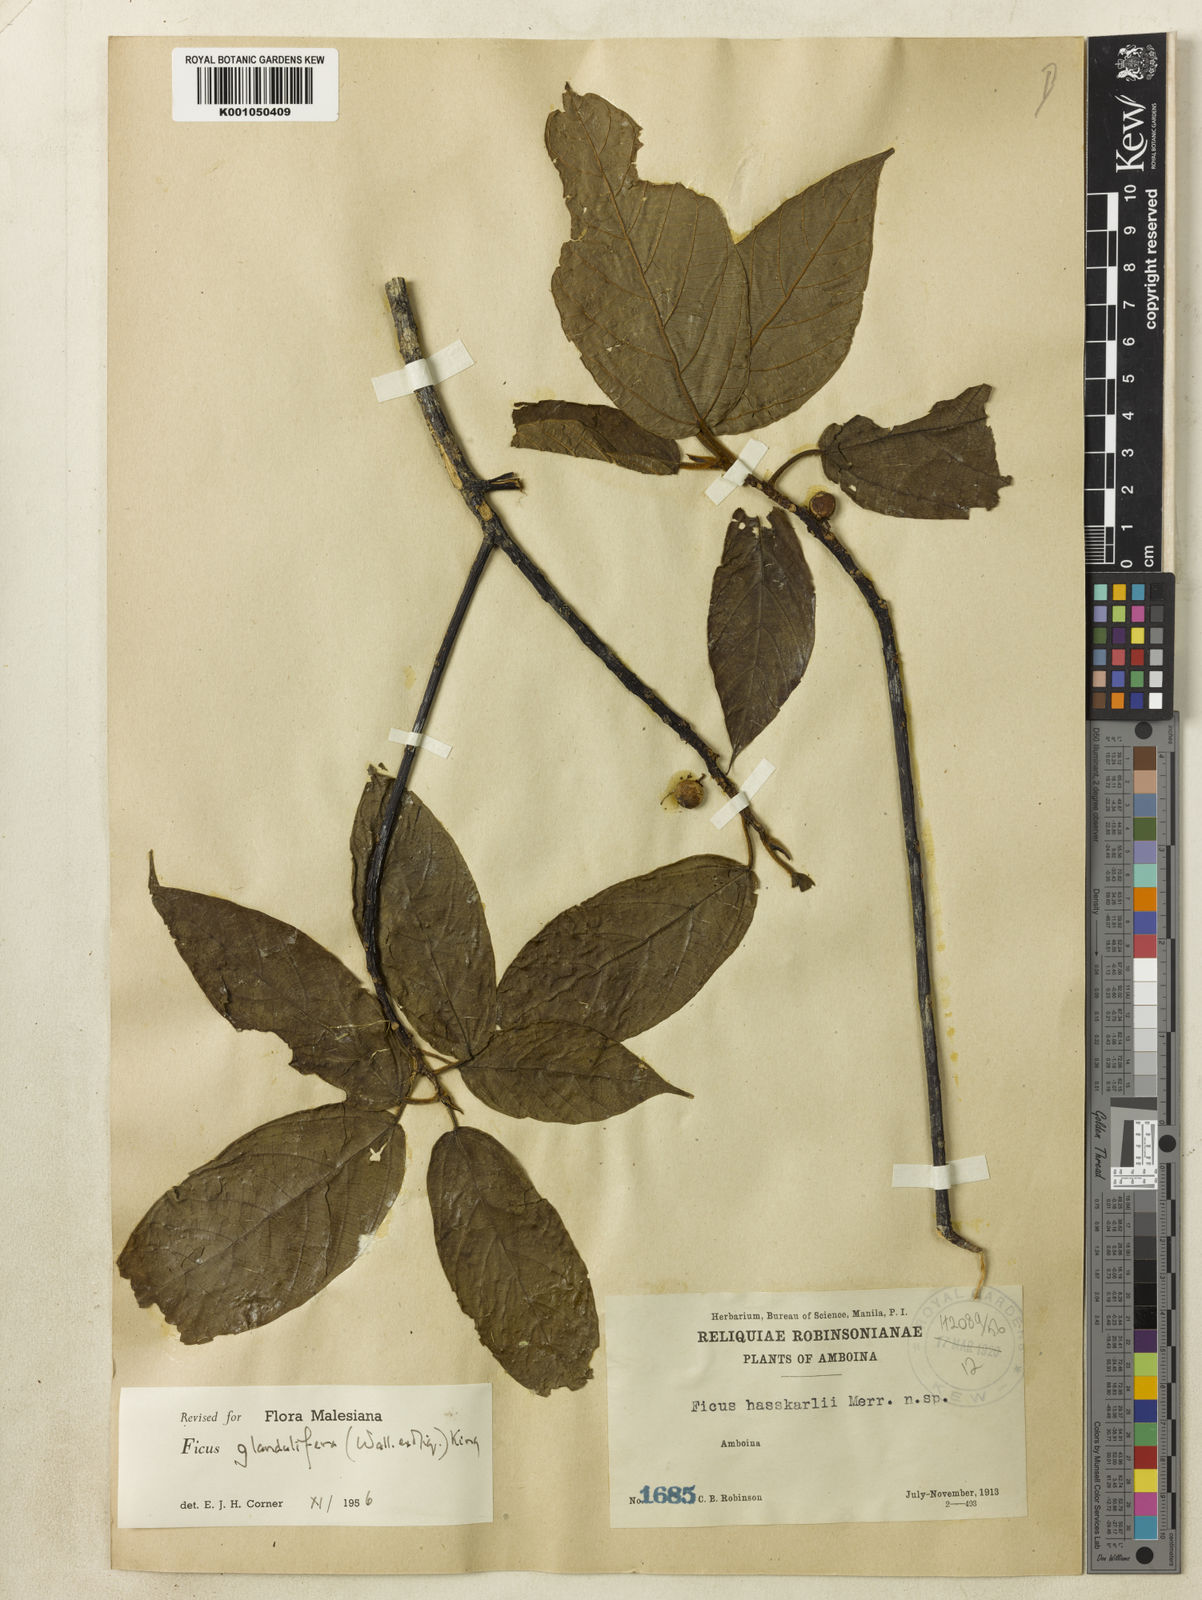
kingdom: Plantae
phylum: Tracheophyta
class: Magnoliopsida
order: Rosales
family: Moraceae
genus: Ficus
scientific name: Ficus
